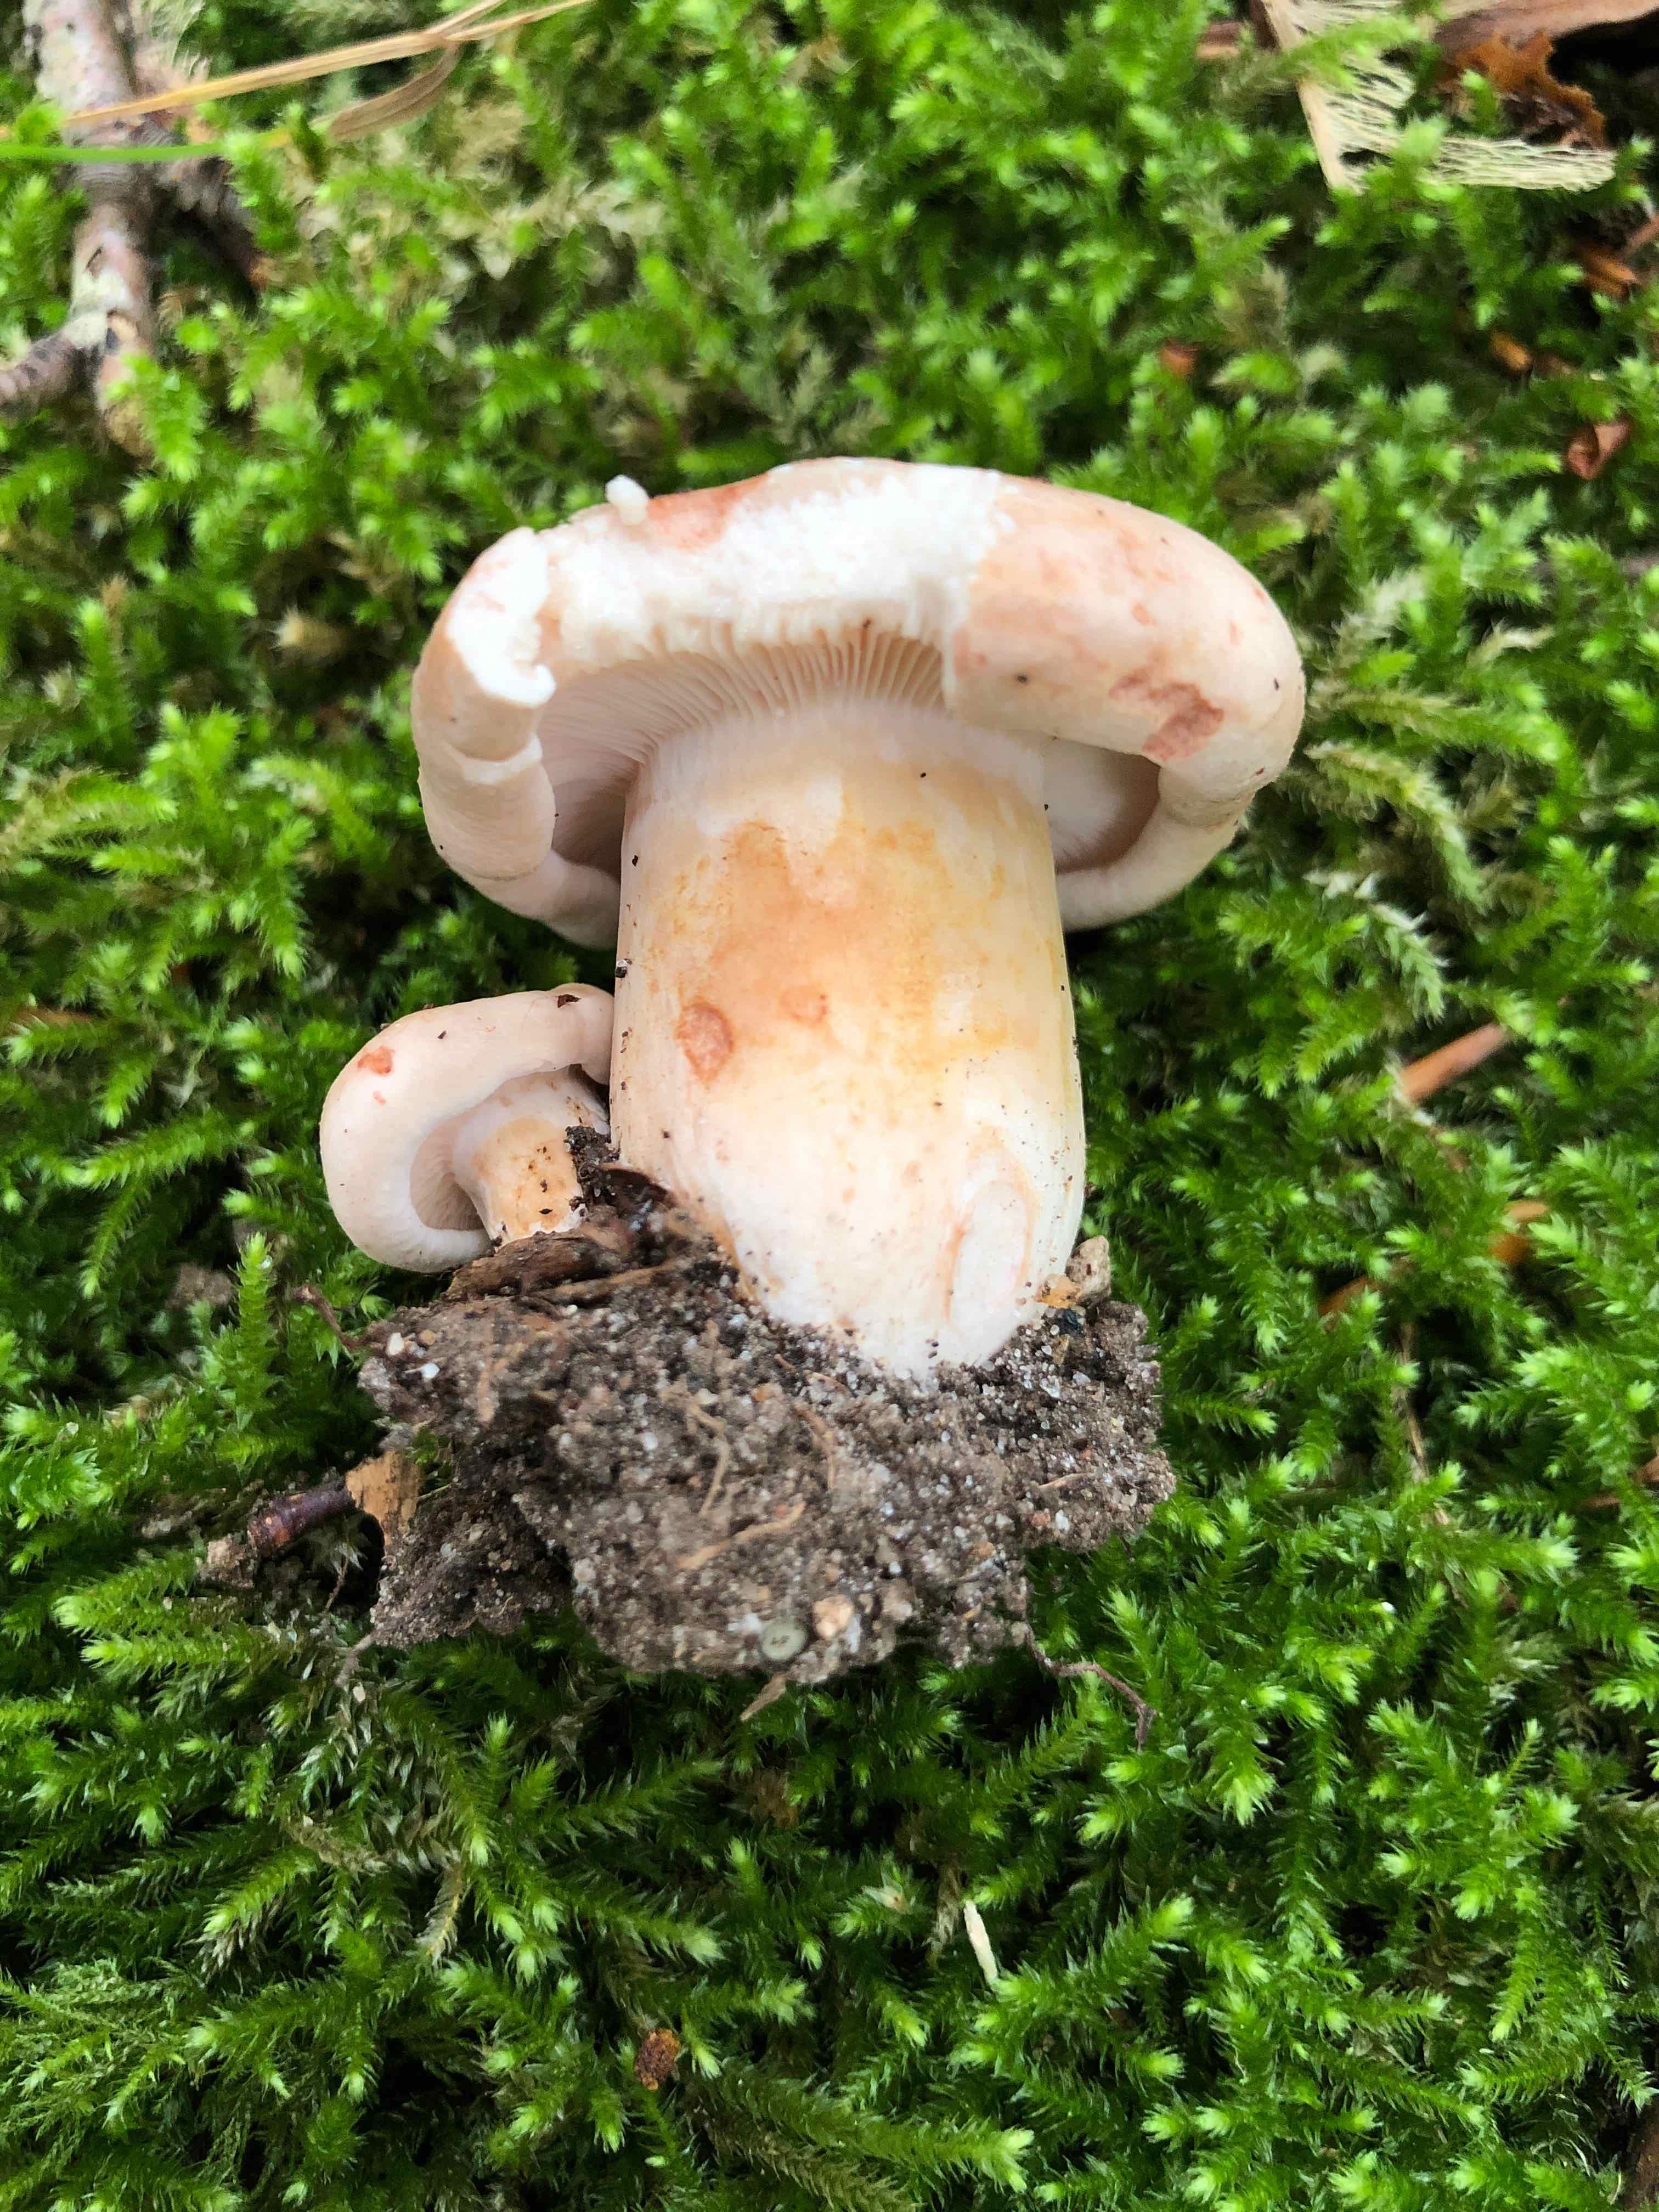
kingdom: Fungi
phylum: Basidiomycota
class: Agaricomycetes
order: Russulales
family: Russulaceae
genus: Lactarius
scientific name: Lactarius pallidus
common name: bleg mælkehat
